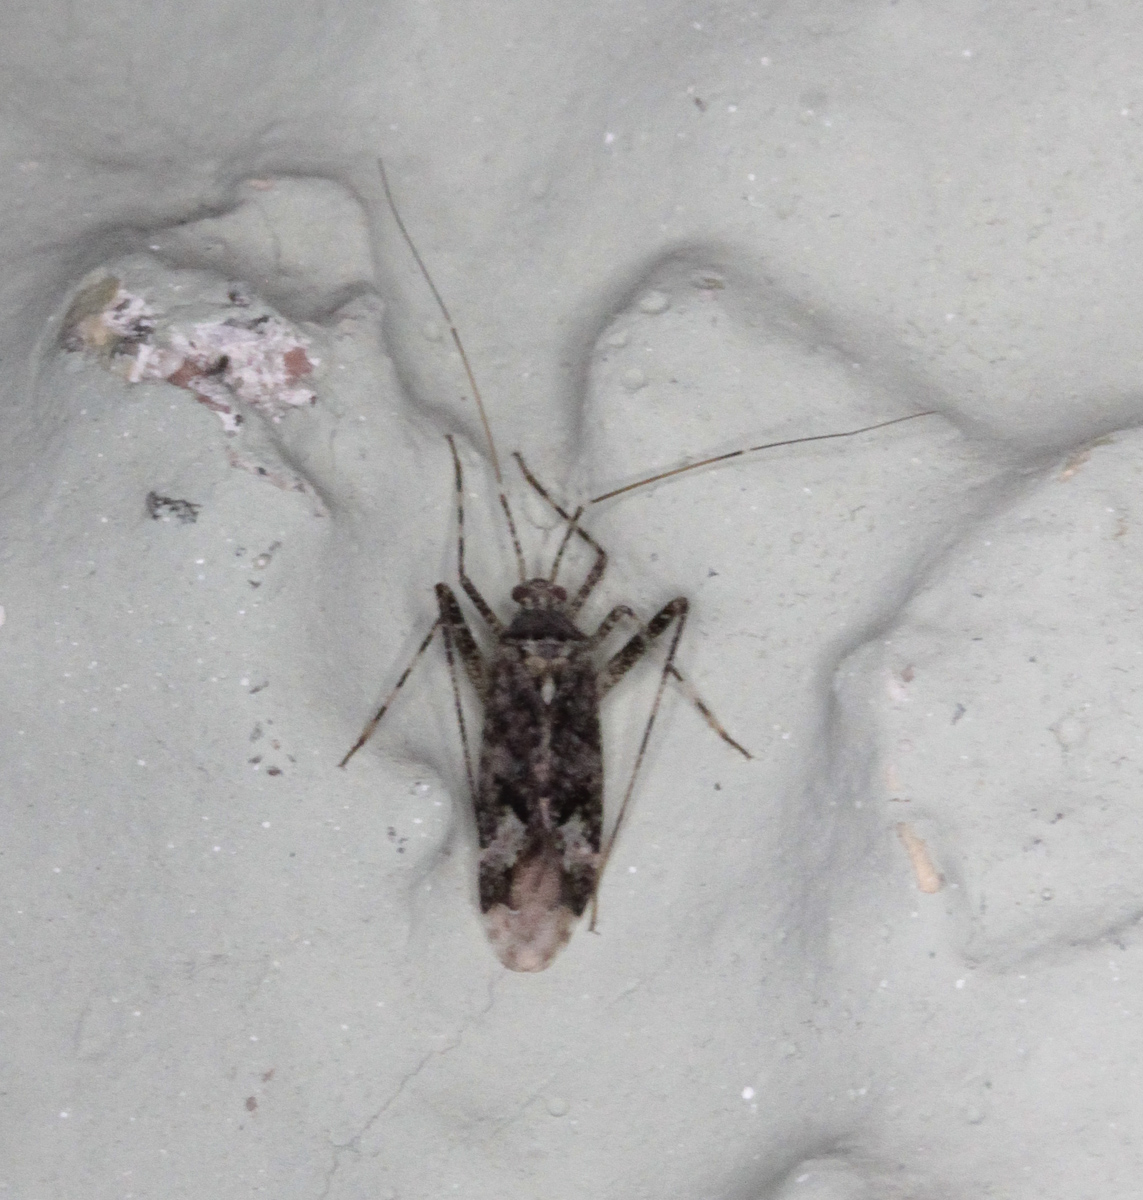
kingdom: Animalia
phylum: Arthropoda
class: Insecta
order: Hemiptera
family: Miridae
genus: Phytocoris
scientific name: Phytocoris populi
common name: Plant bug
